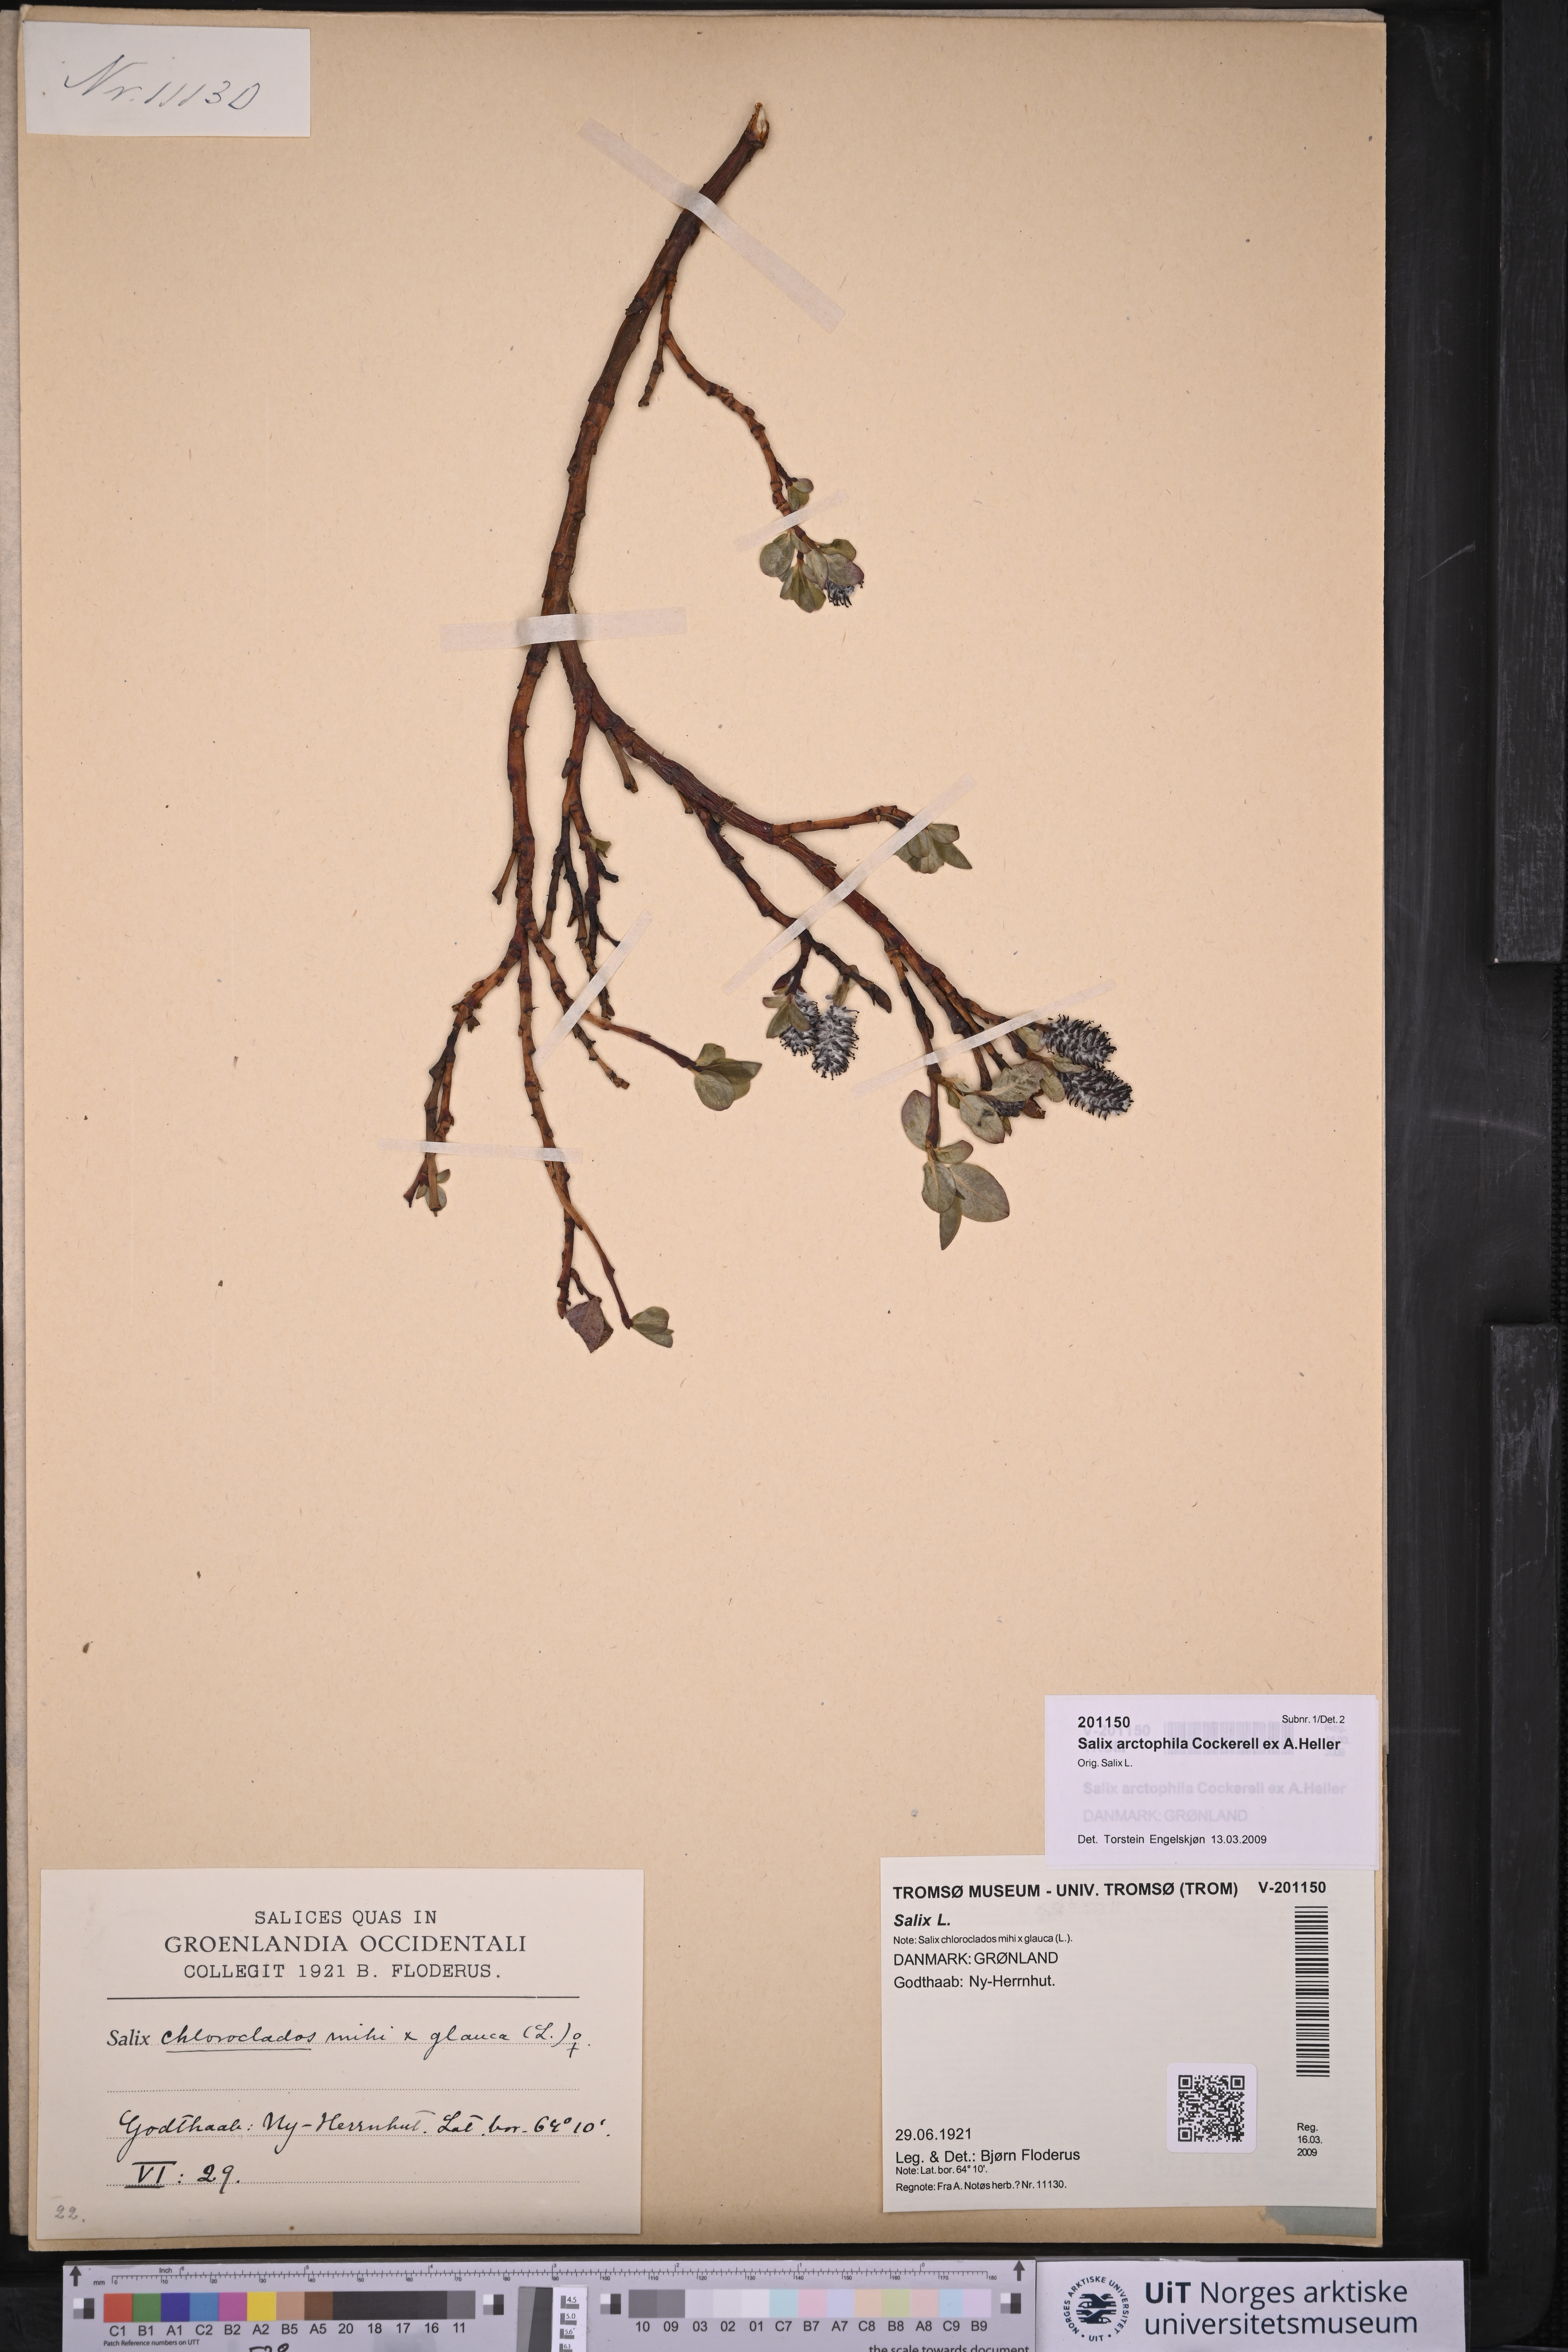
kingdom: Plantae
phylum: Tracheophyta
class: Magnoliopsida
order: Malpighiales
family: Salicaceae
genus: Salix
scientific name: Salix arctophila
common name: Greenland willow
